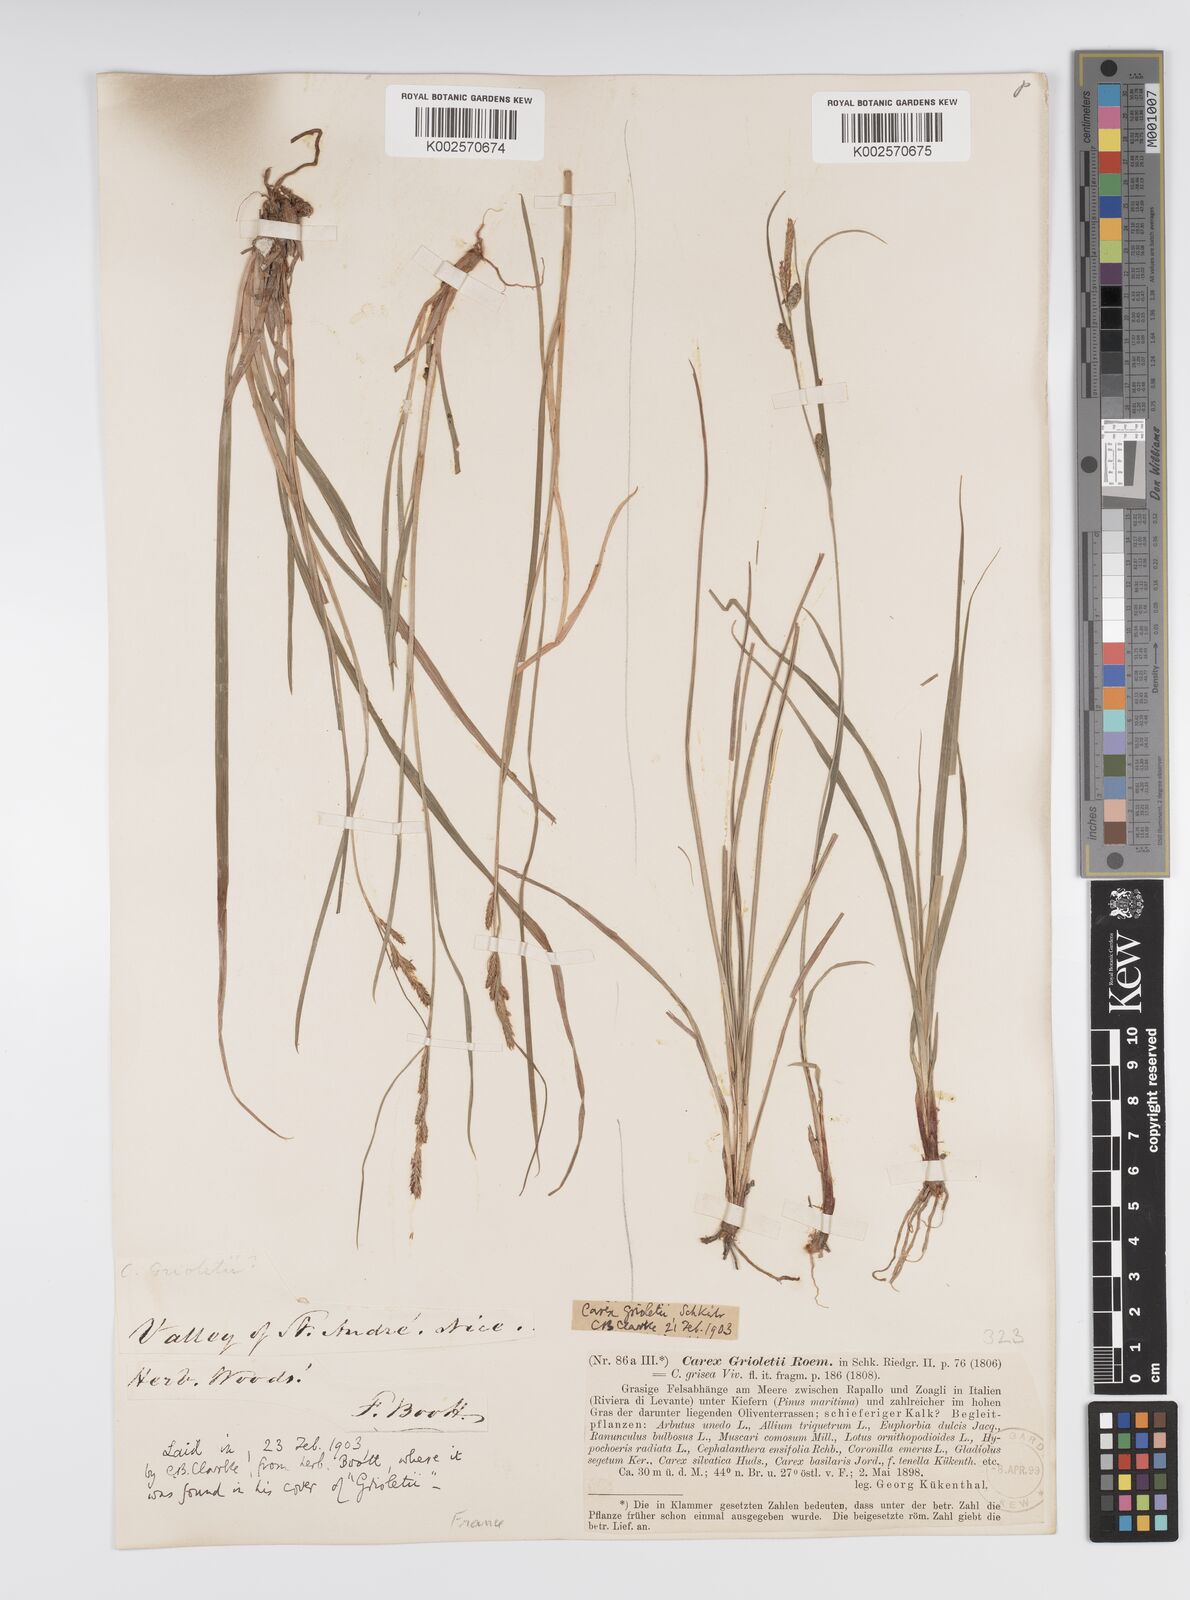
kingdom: Plantae
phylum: Tracheophyta
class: Liliopsida
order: Poales
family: Cyperaceae
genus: Carex
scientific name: Carex grioletii
